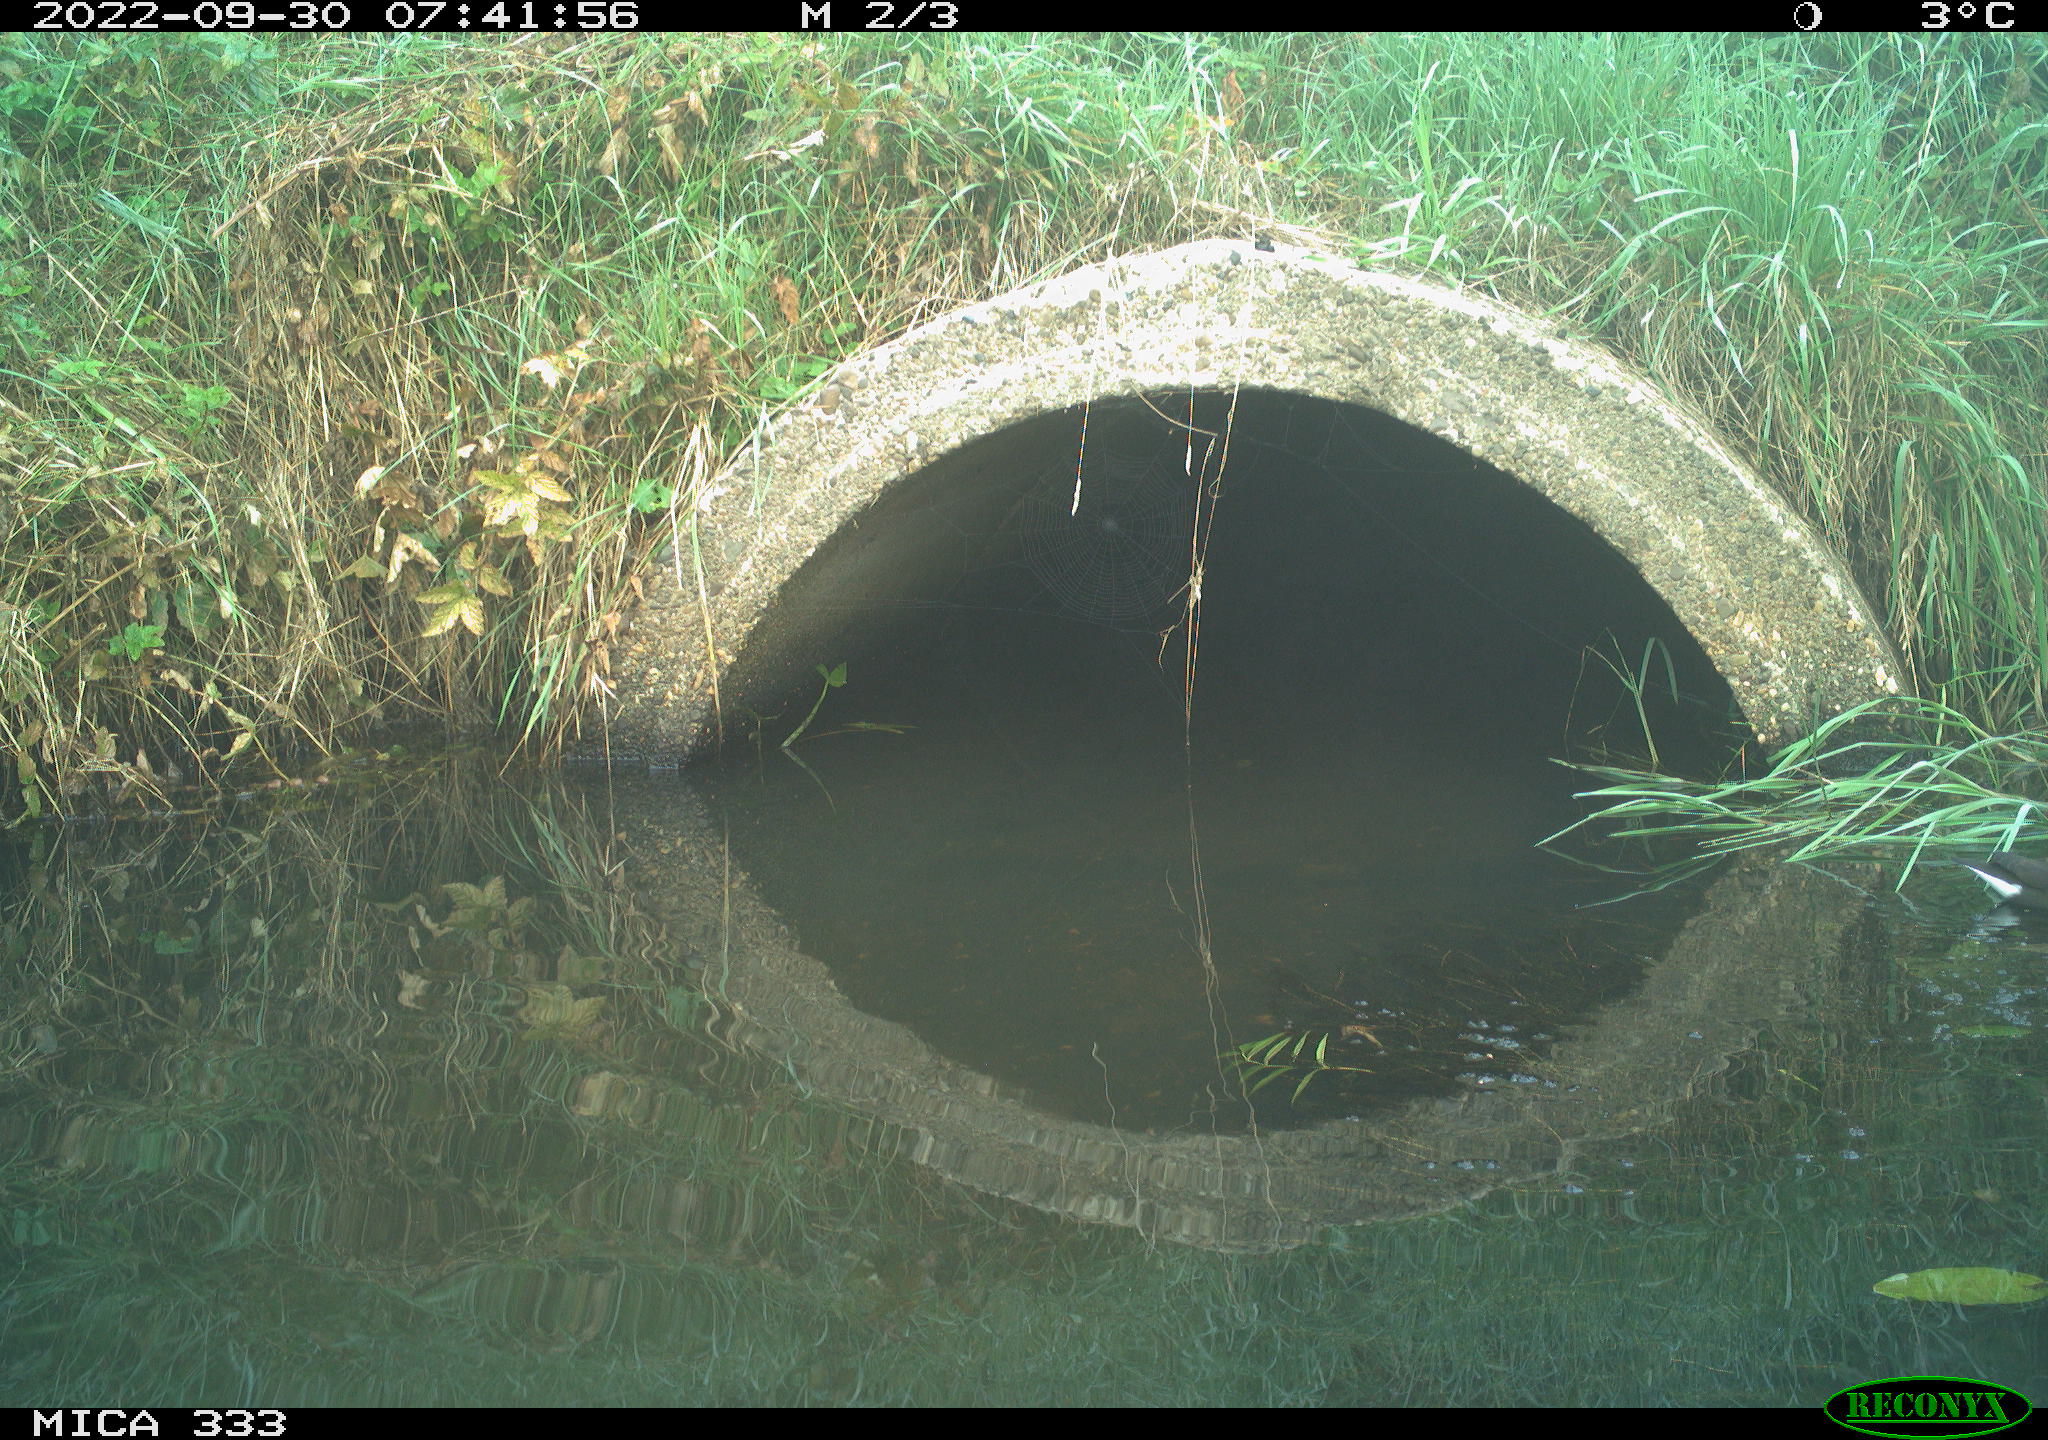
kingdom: Animalia
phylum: Chordata
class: Aves
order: Gruiformes
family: Rallidae
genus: Gallinula
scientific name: Gallinula chloropus
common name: Common moorhen
